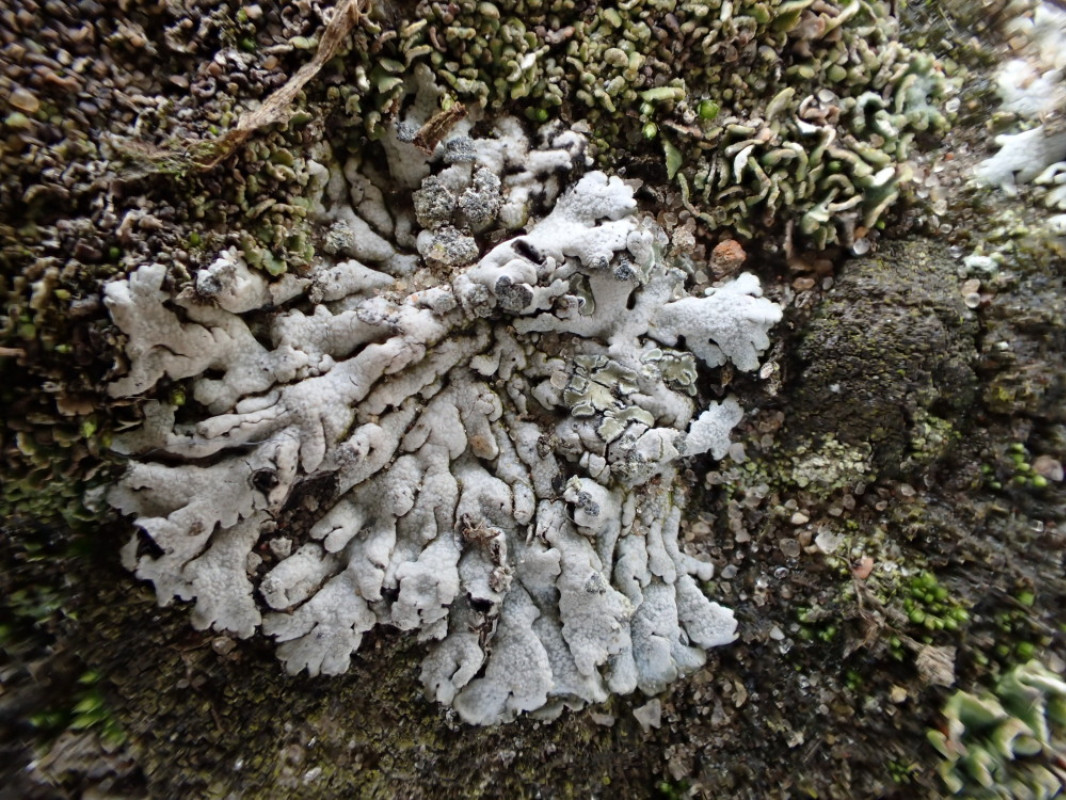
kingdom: Fungi
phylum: Ascomycota
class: Lecanoromycetes
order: Caliciales
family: Physciaceae
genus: Physcia
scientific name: Physcia caesia
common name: blågrå rosetlav
